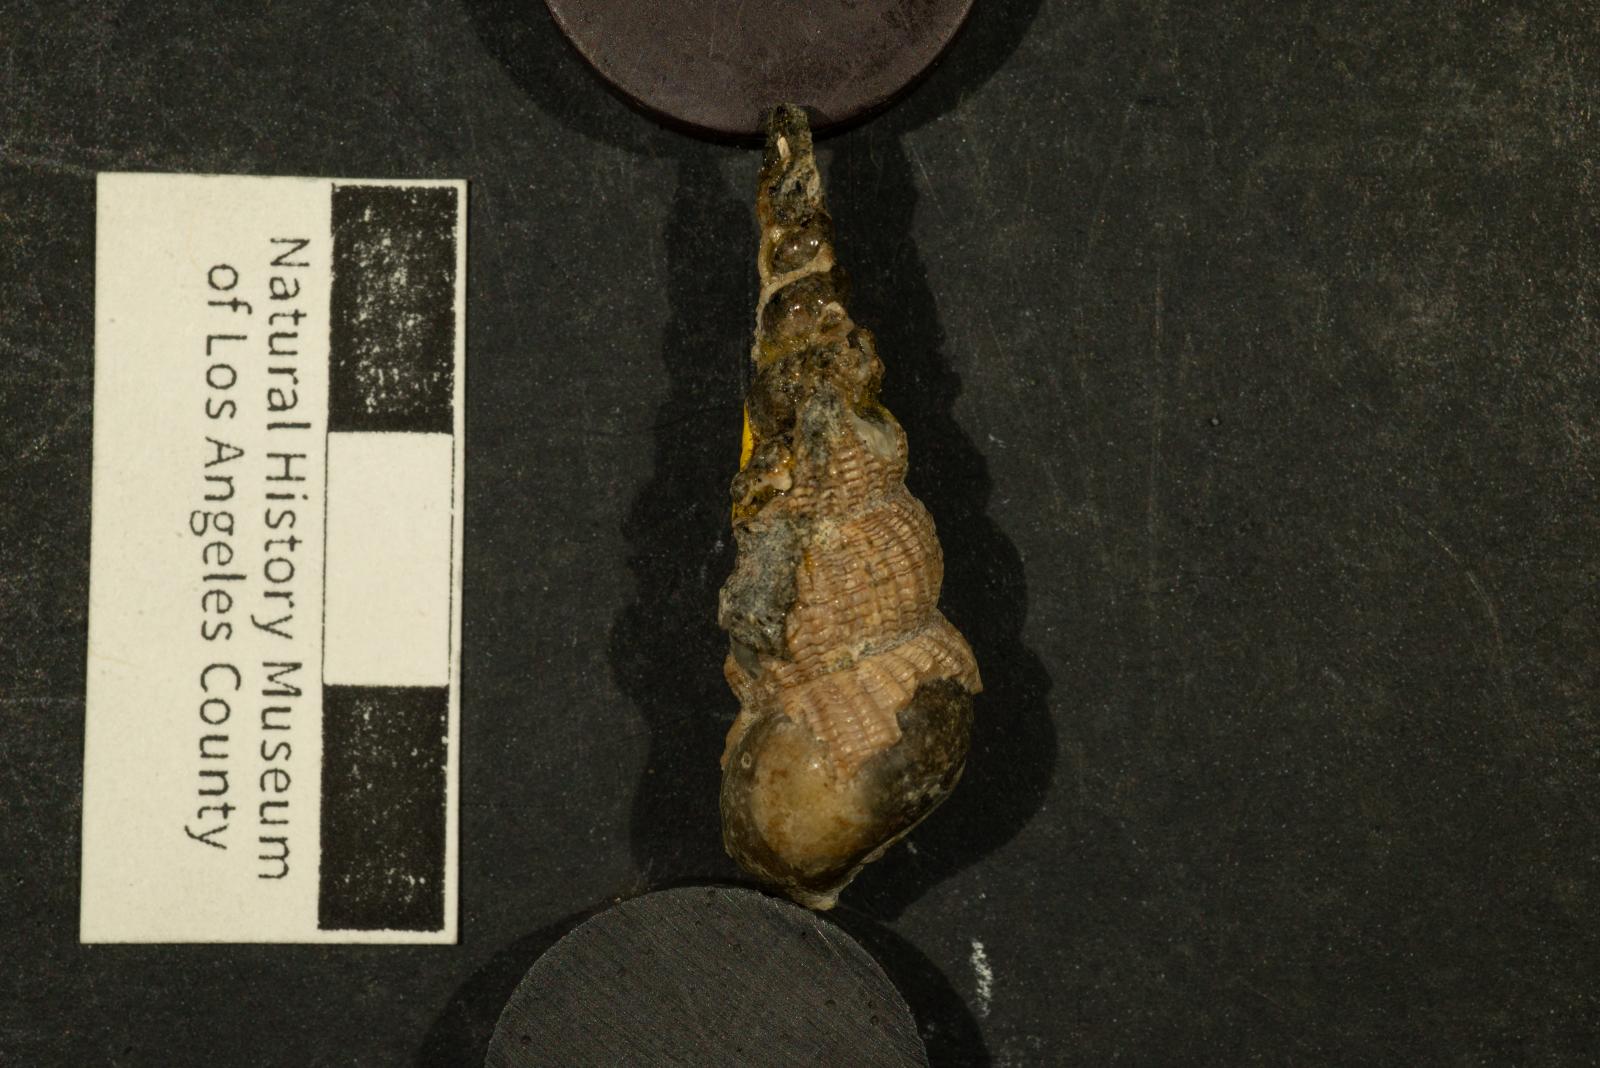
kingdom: Animalia
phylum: Mollusca
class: Gastropoda
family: Epitoniidae
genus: Amaea
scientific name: Amaea cerva
